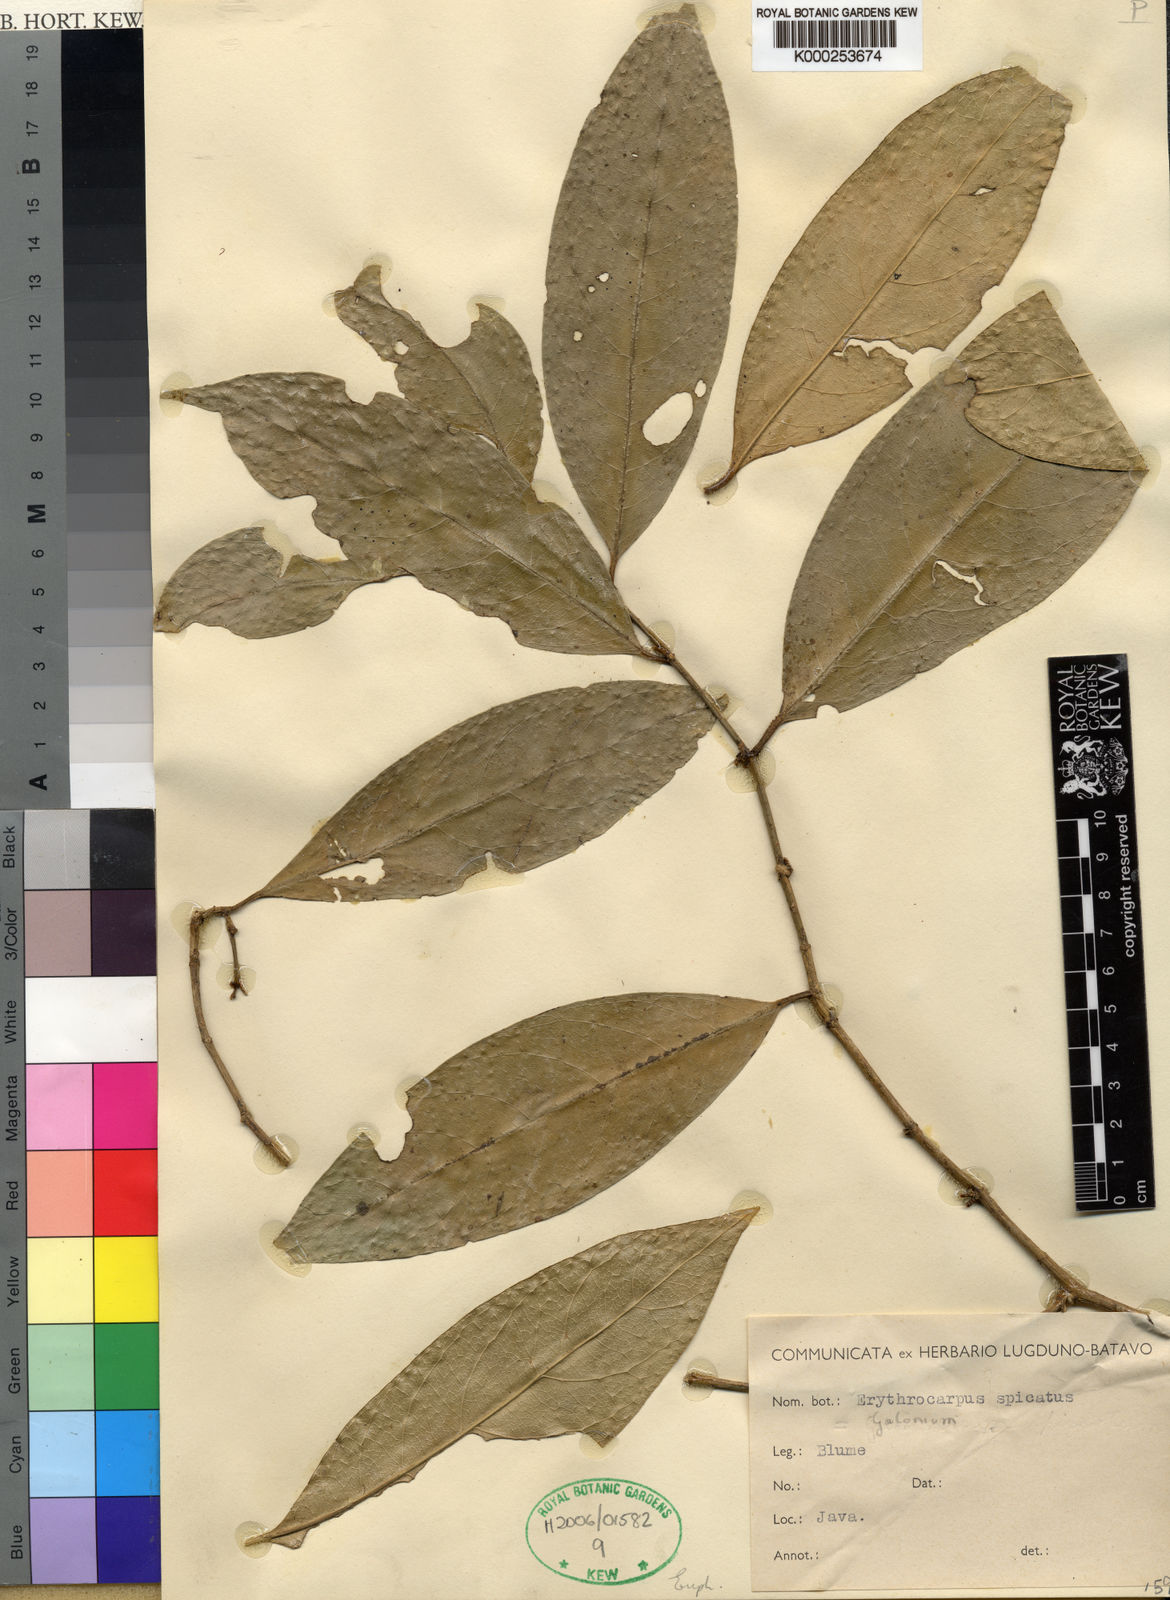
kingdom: Plantae
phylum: Tracheophyta
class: Magnoliopsida
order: Malpighiales
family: Euphorbiaceae
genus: Suregada
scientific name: Suregada glomerulata
